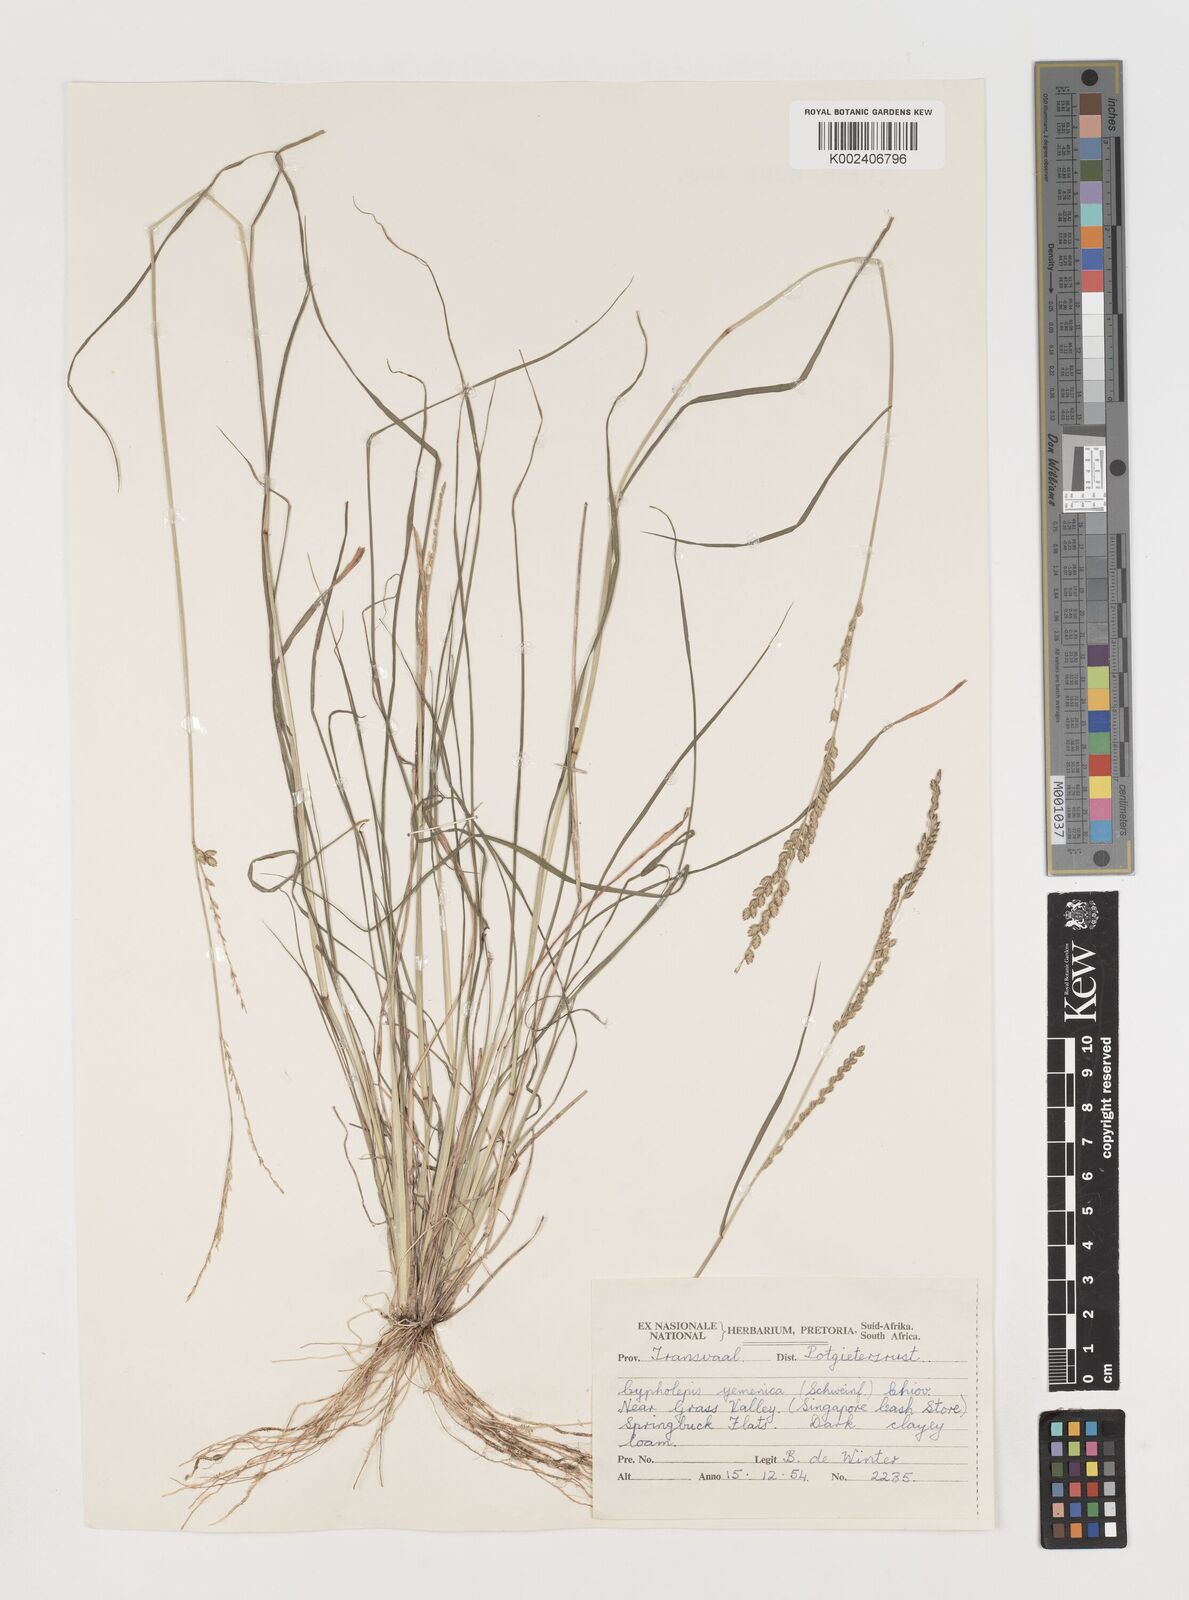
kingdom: Plantae
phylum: Tracheophyta
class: Liliopsida
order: Poales
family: Poaceae
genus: Disakisperma
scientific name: Disakisperma yemenicum
